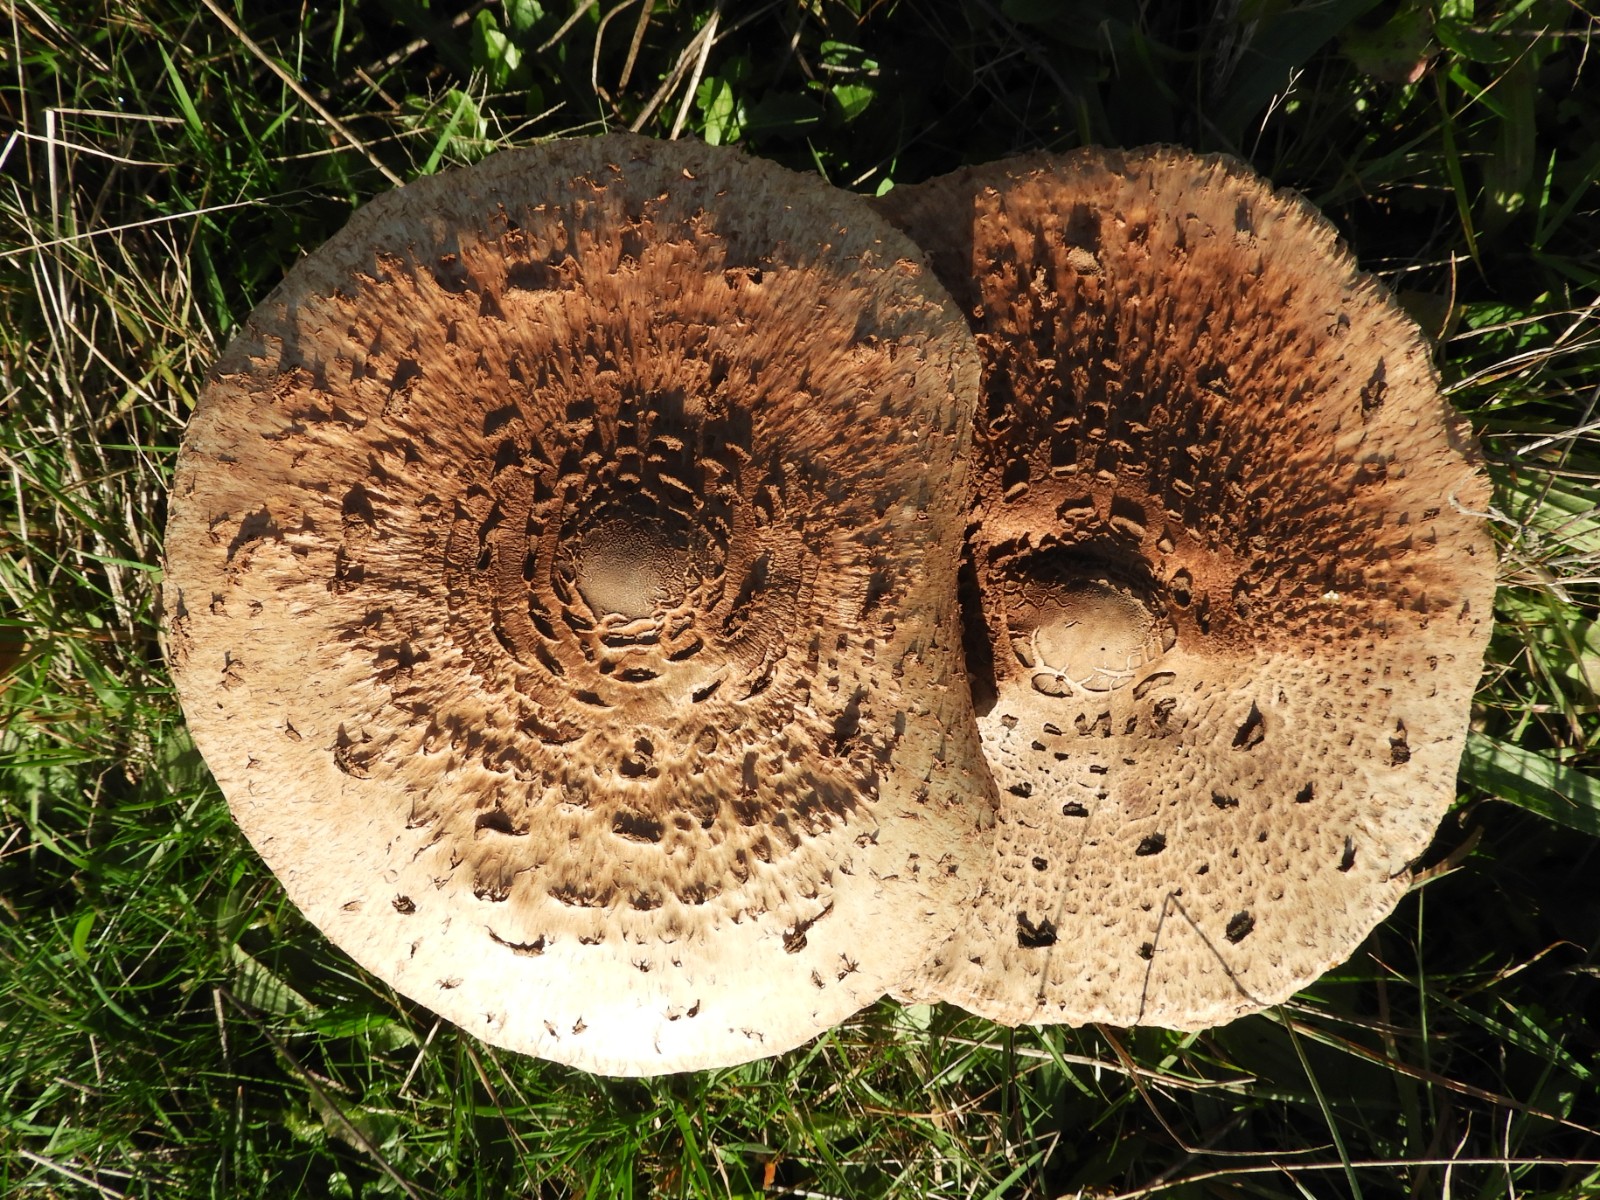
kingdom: Fungi
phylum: Basidiomycota
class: Agaricomycetes
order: Agaricales
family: Agaricaceae
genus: Macrolepiota
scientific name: Macrolepiota procera
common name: stor kæmpeparasolhat
